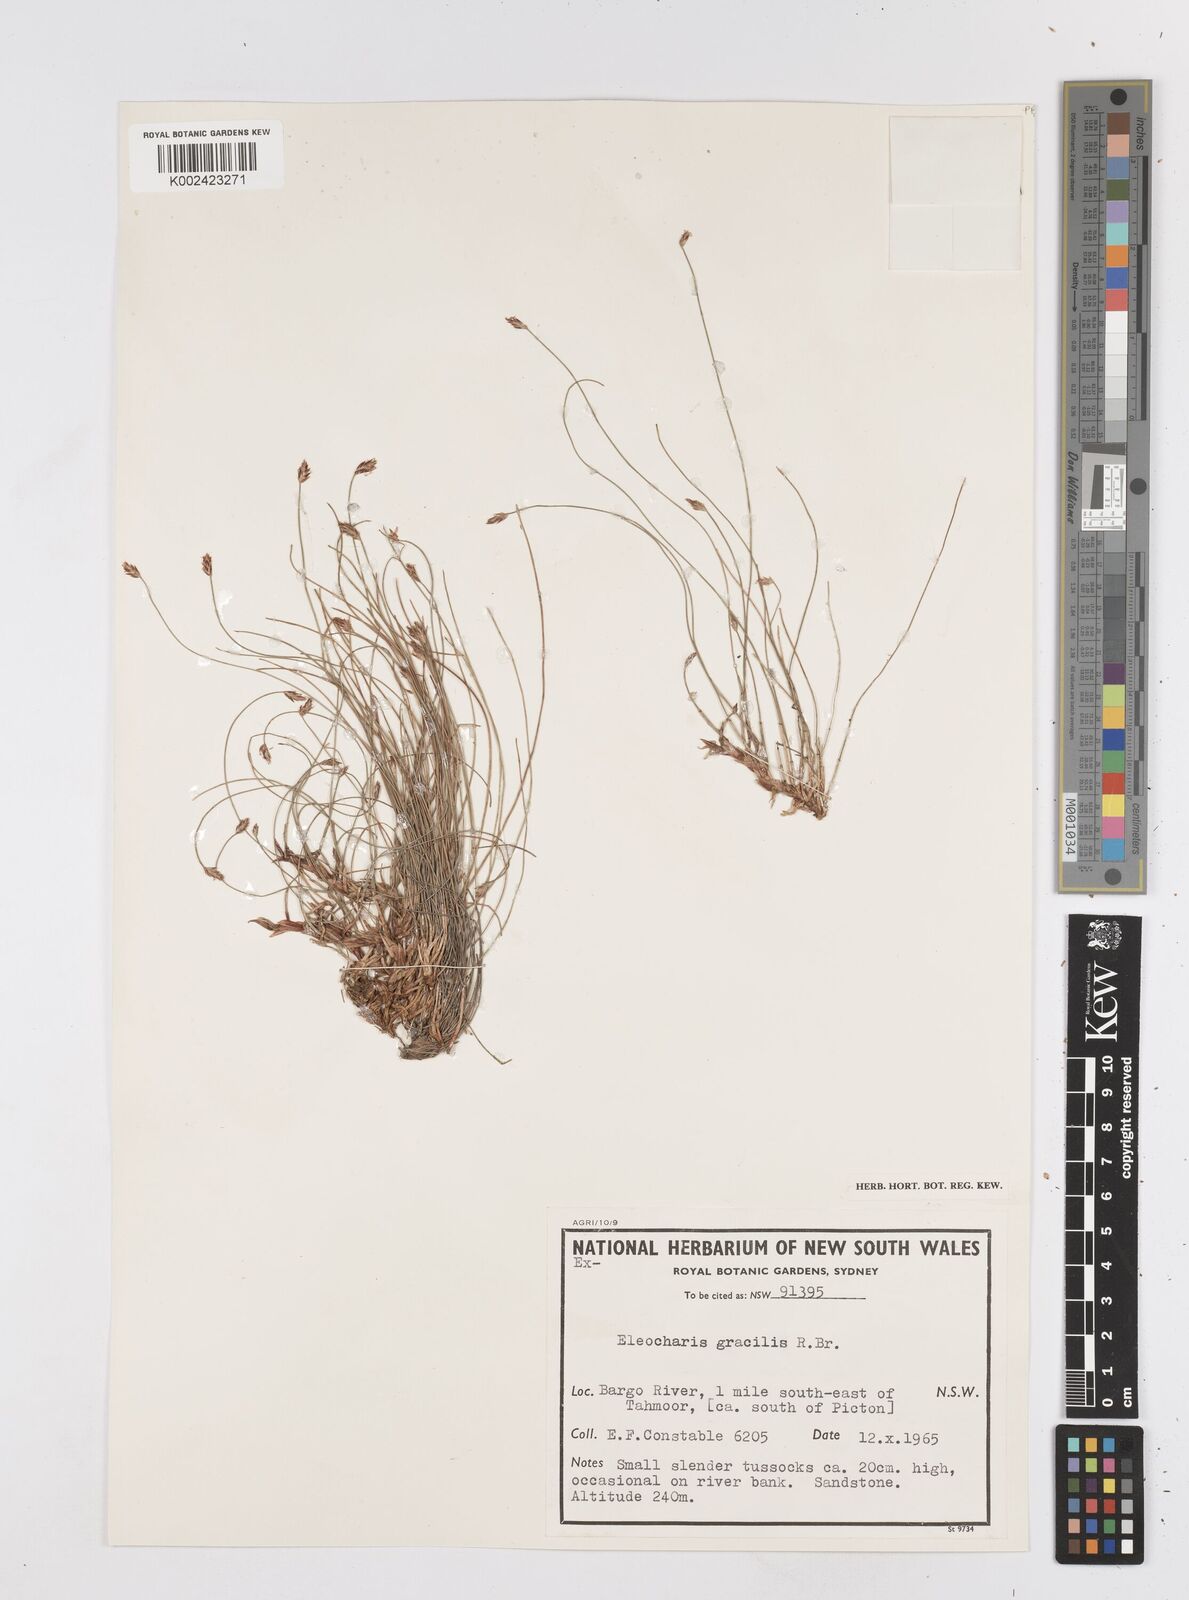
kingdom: Plantae
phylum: Tracheophyta
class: Liliopsida
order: Poales
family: Cyperaceae
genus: Eleocharis
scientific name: Eleocharis multicaulis
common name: Many-stalked spike-rush
